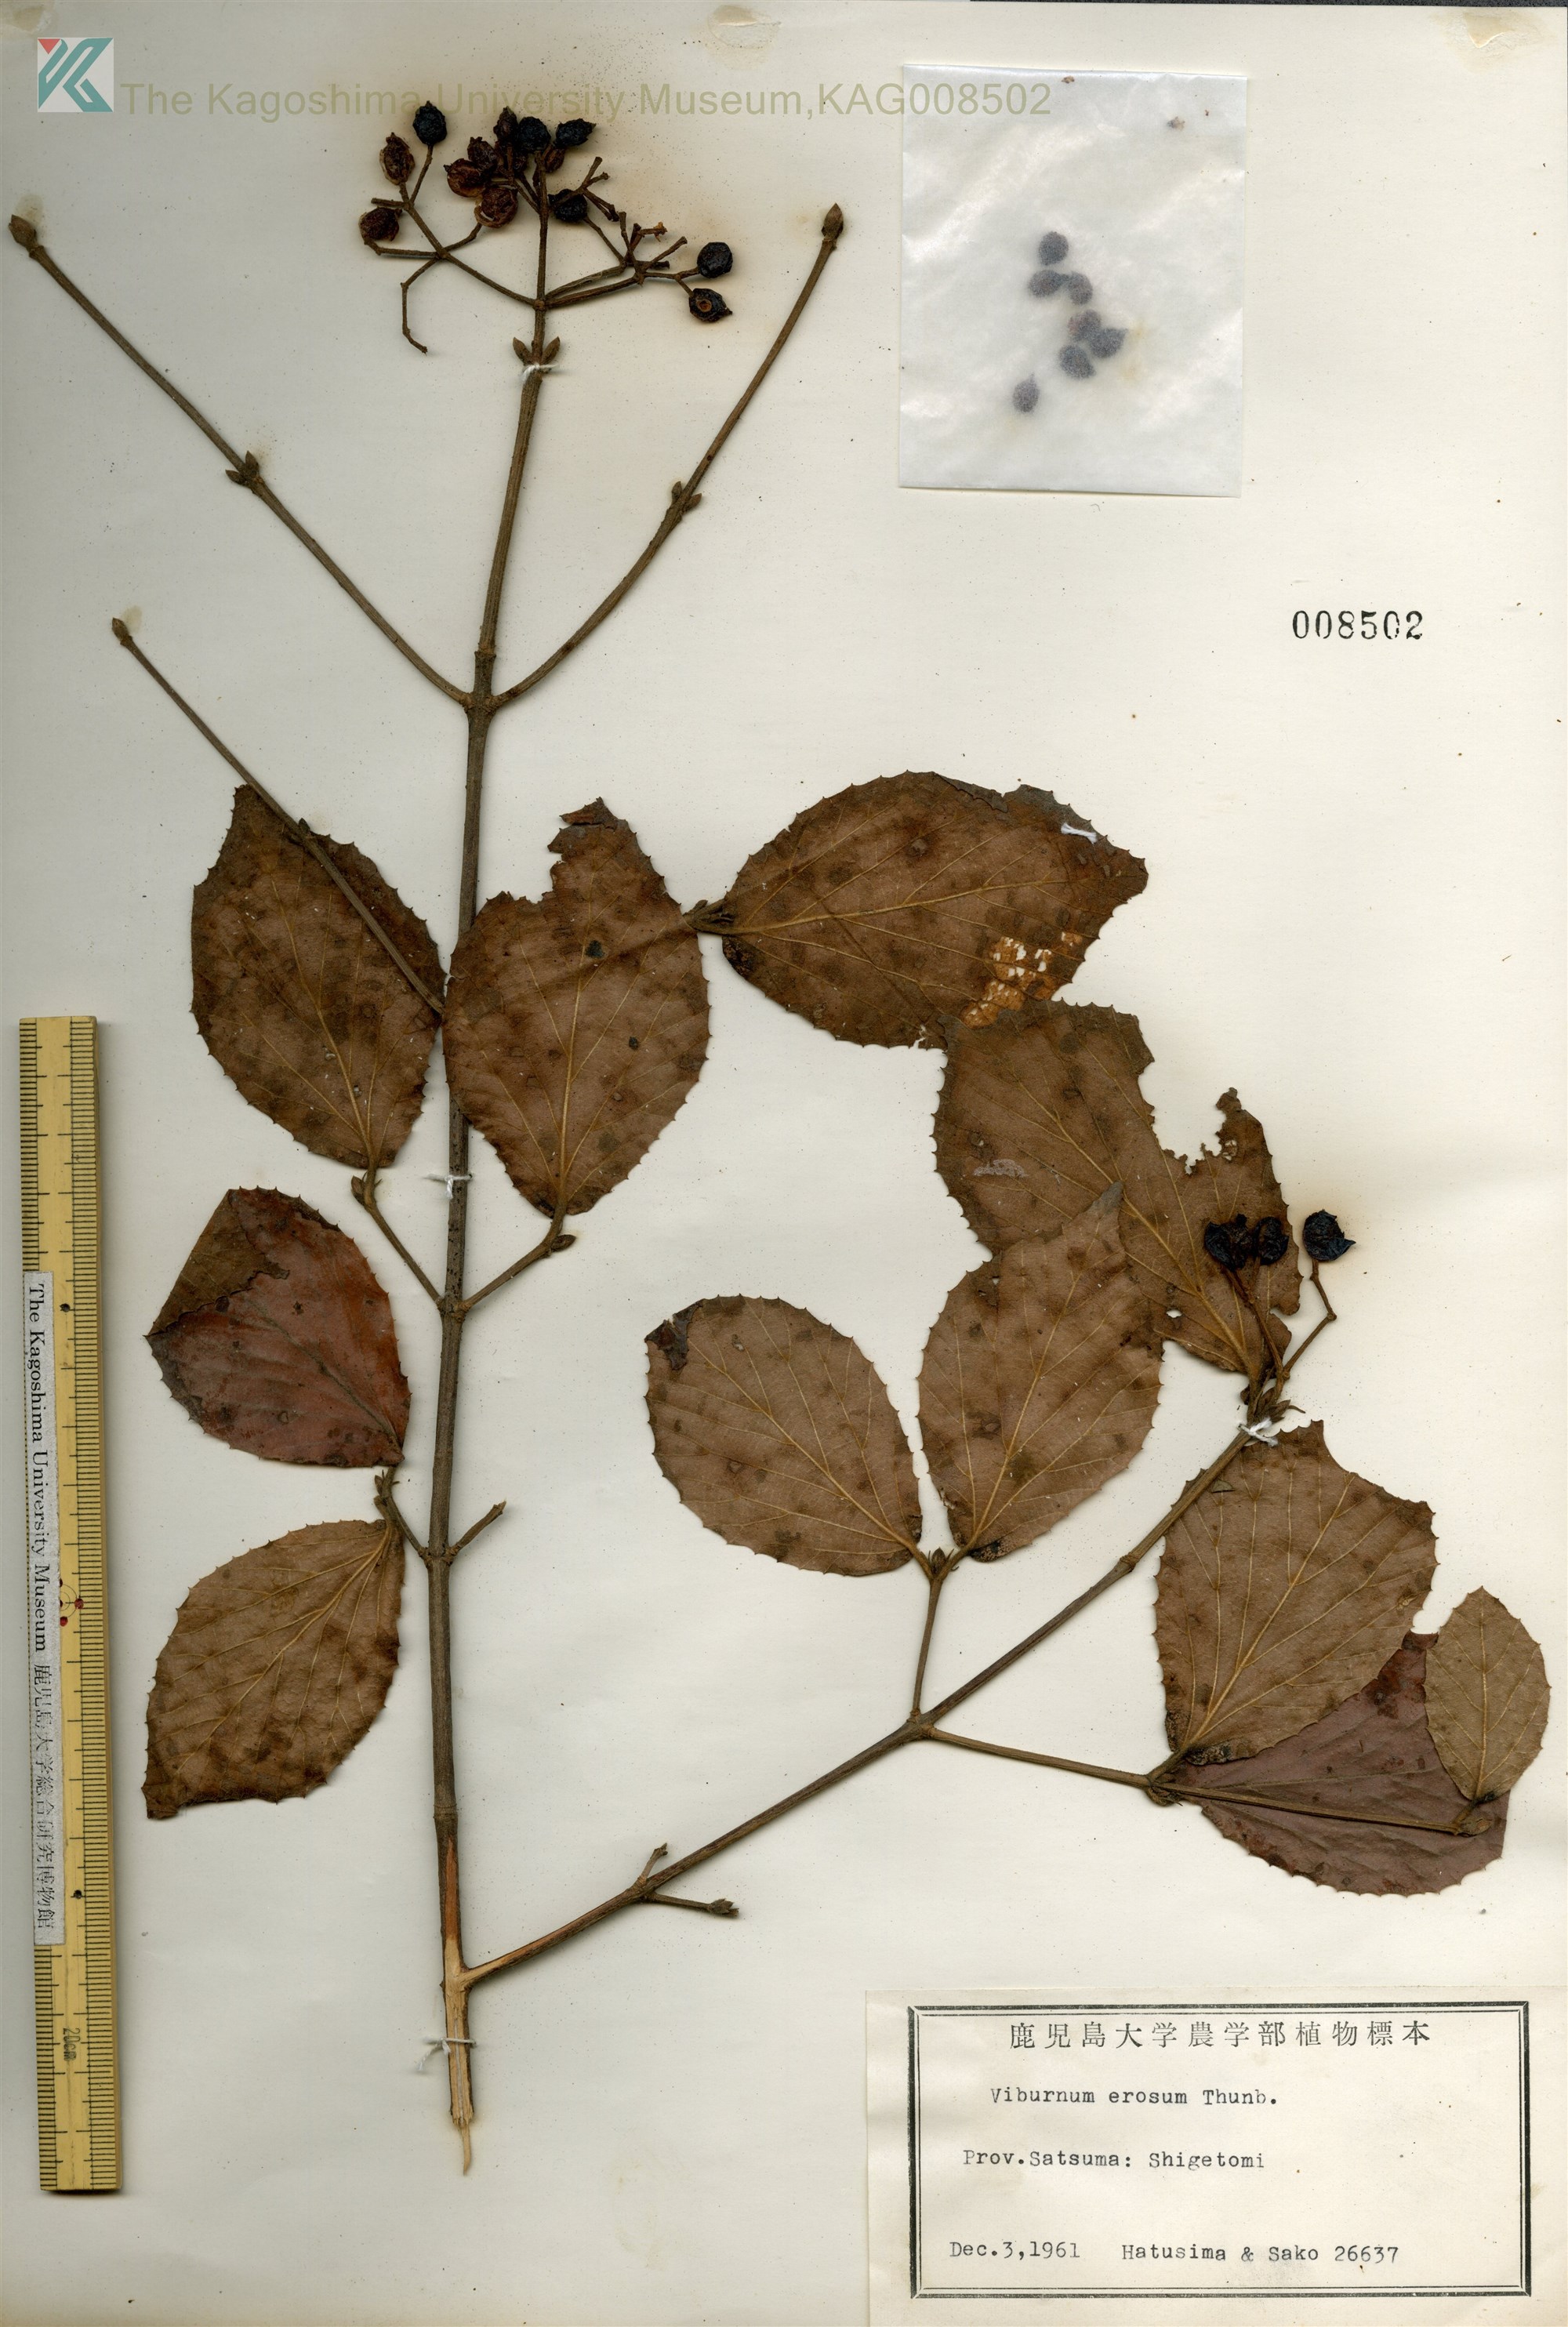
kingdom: Plantae
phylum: Tracheophyta
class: Magnoliopsida
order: Dipsacales
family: Viburnaceae
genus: Viburnum
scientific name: Viburnum erosum
